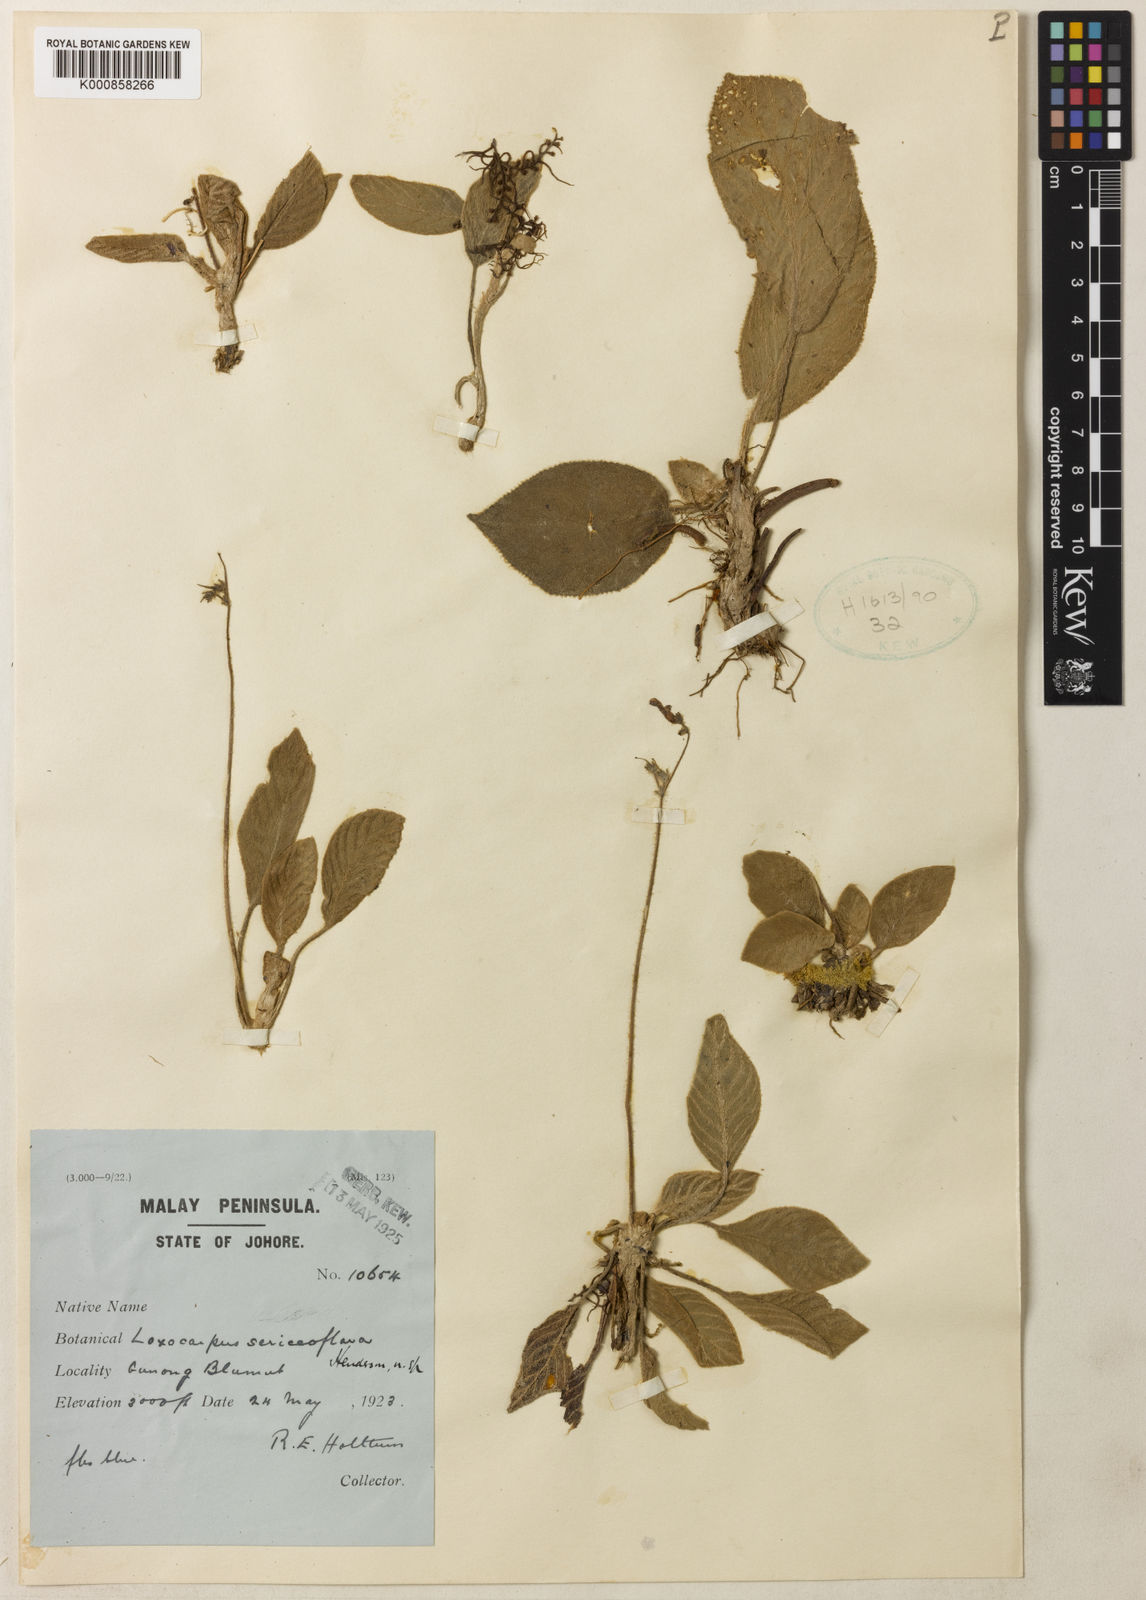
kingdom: Plantae
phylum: Tracheophyta
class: Magnoliopsida
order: Lamiales
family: Gesneriaceae
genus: Loxocarpus
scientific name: Loxocarpus sericiflavus
